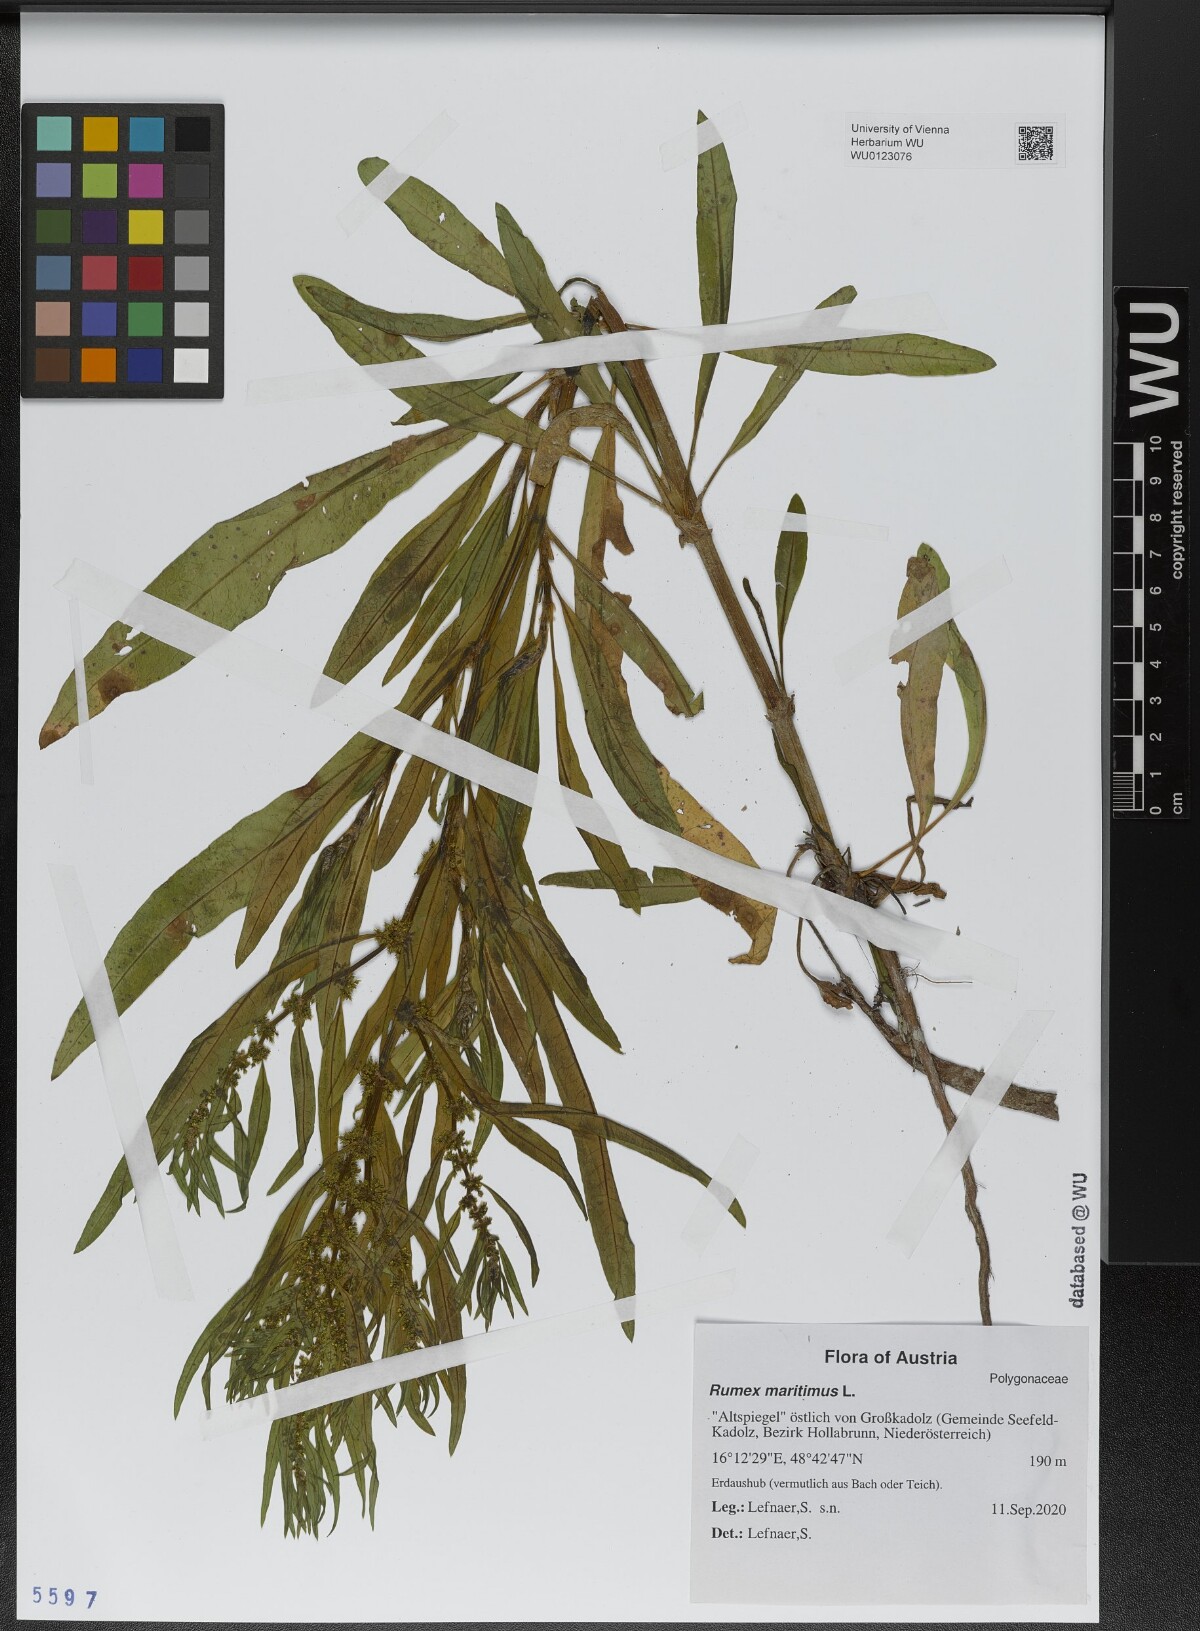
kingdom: Plantae
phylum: Tracheophyta
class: Magnoliopsida
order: Caryophyllales
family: Polygonaceae
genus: Rumex
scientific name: Rumex maritimus
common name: Golden dock
